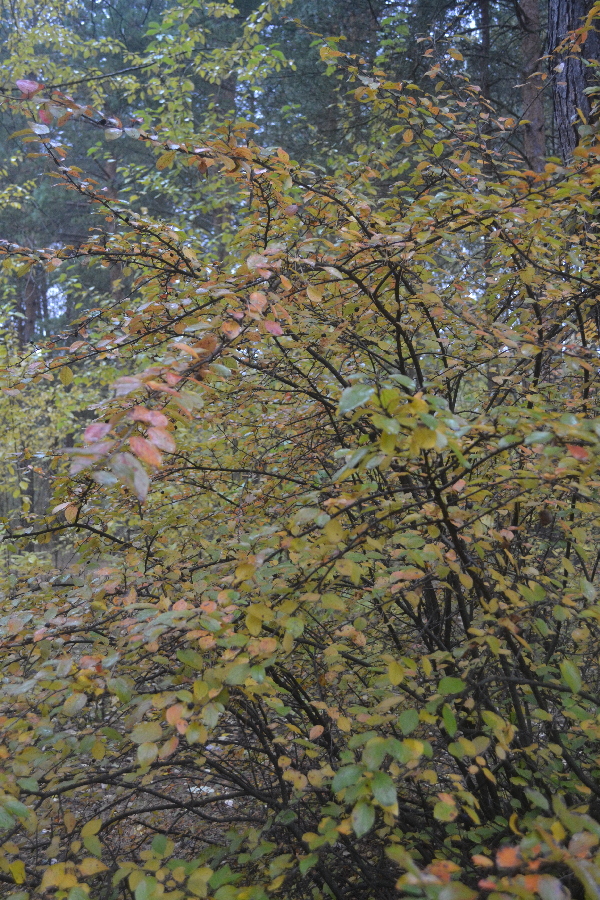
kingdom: Plantae
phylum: Tracheophyta
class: Magnoliopsida
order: Rosales
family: Rosaceae
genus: Cotoneaster
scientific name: Cotoneaster acutifolius
